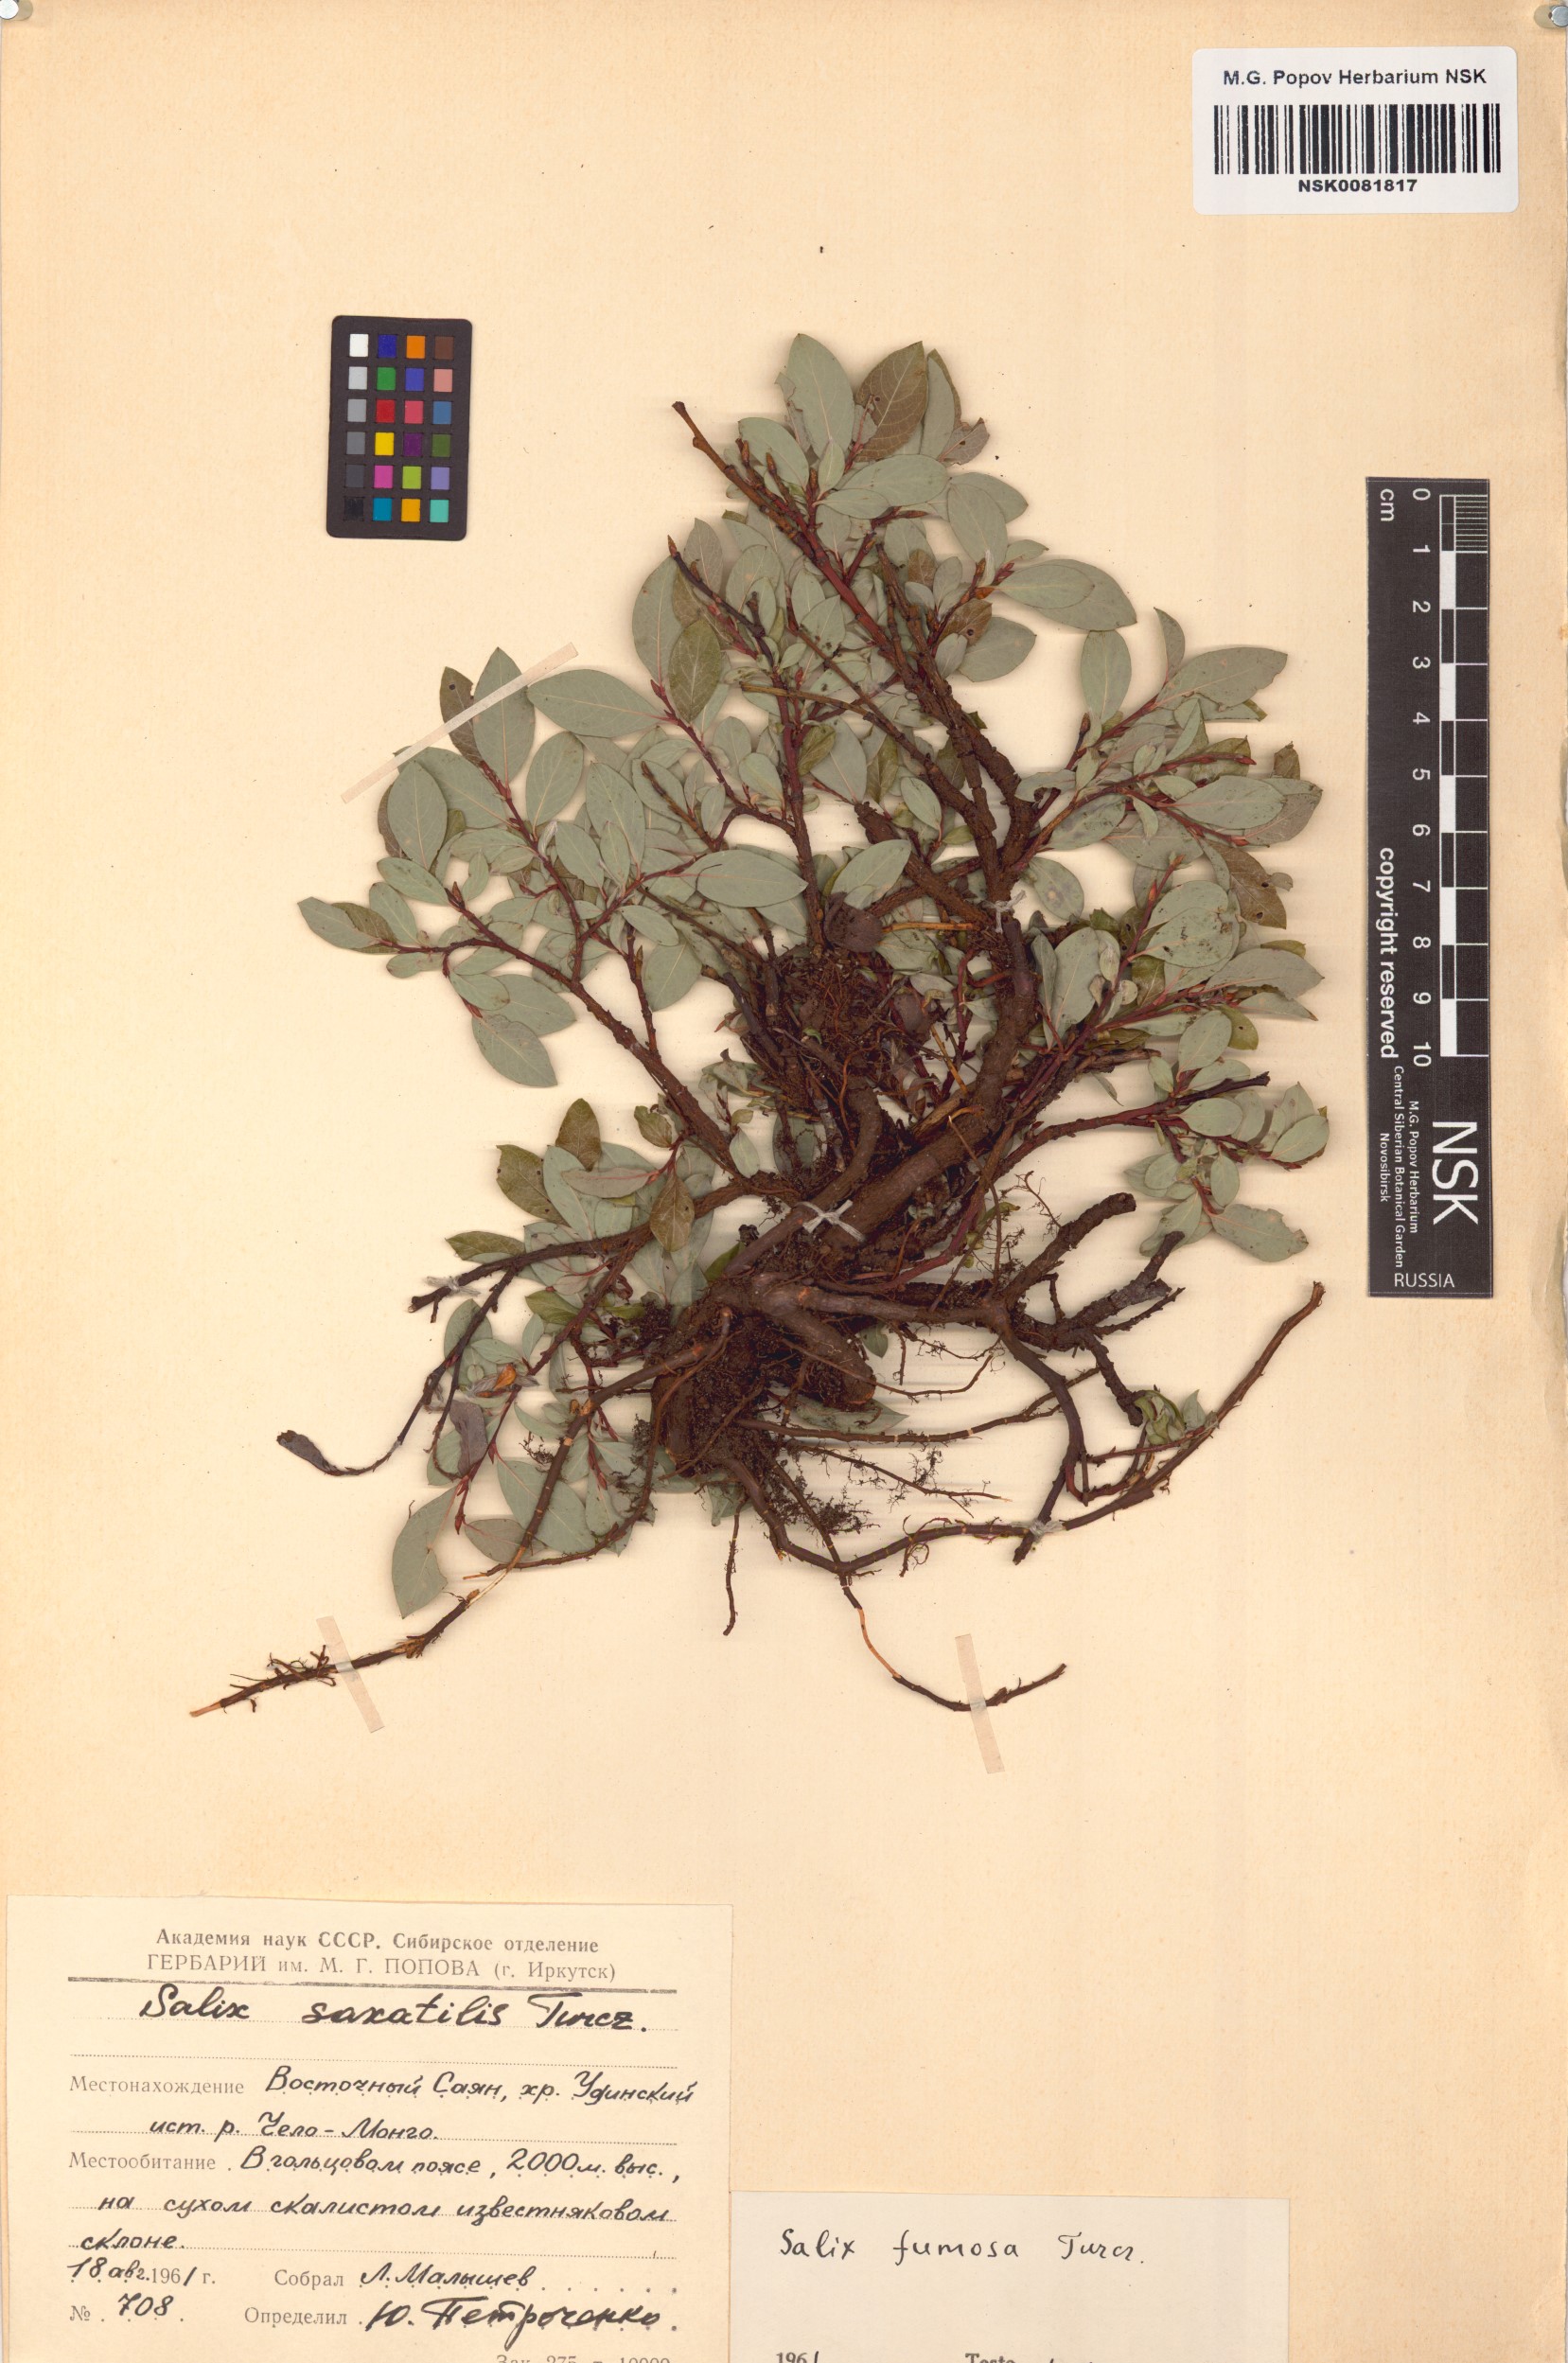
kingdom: Plantae
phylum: Tracheophyta
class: Magnoliopsida
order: Malpighiales
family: Salicaceae
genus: Salix
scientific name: Salix saxatilis
